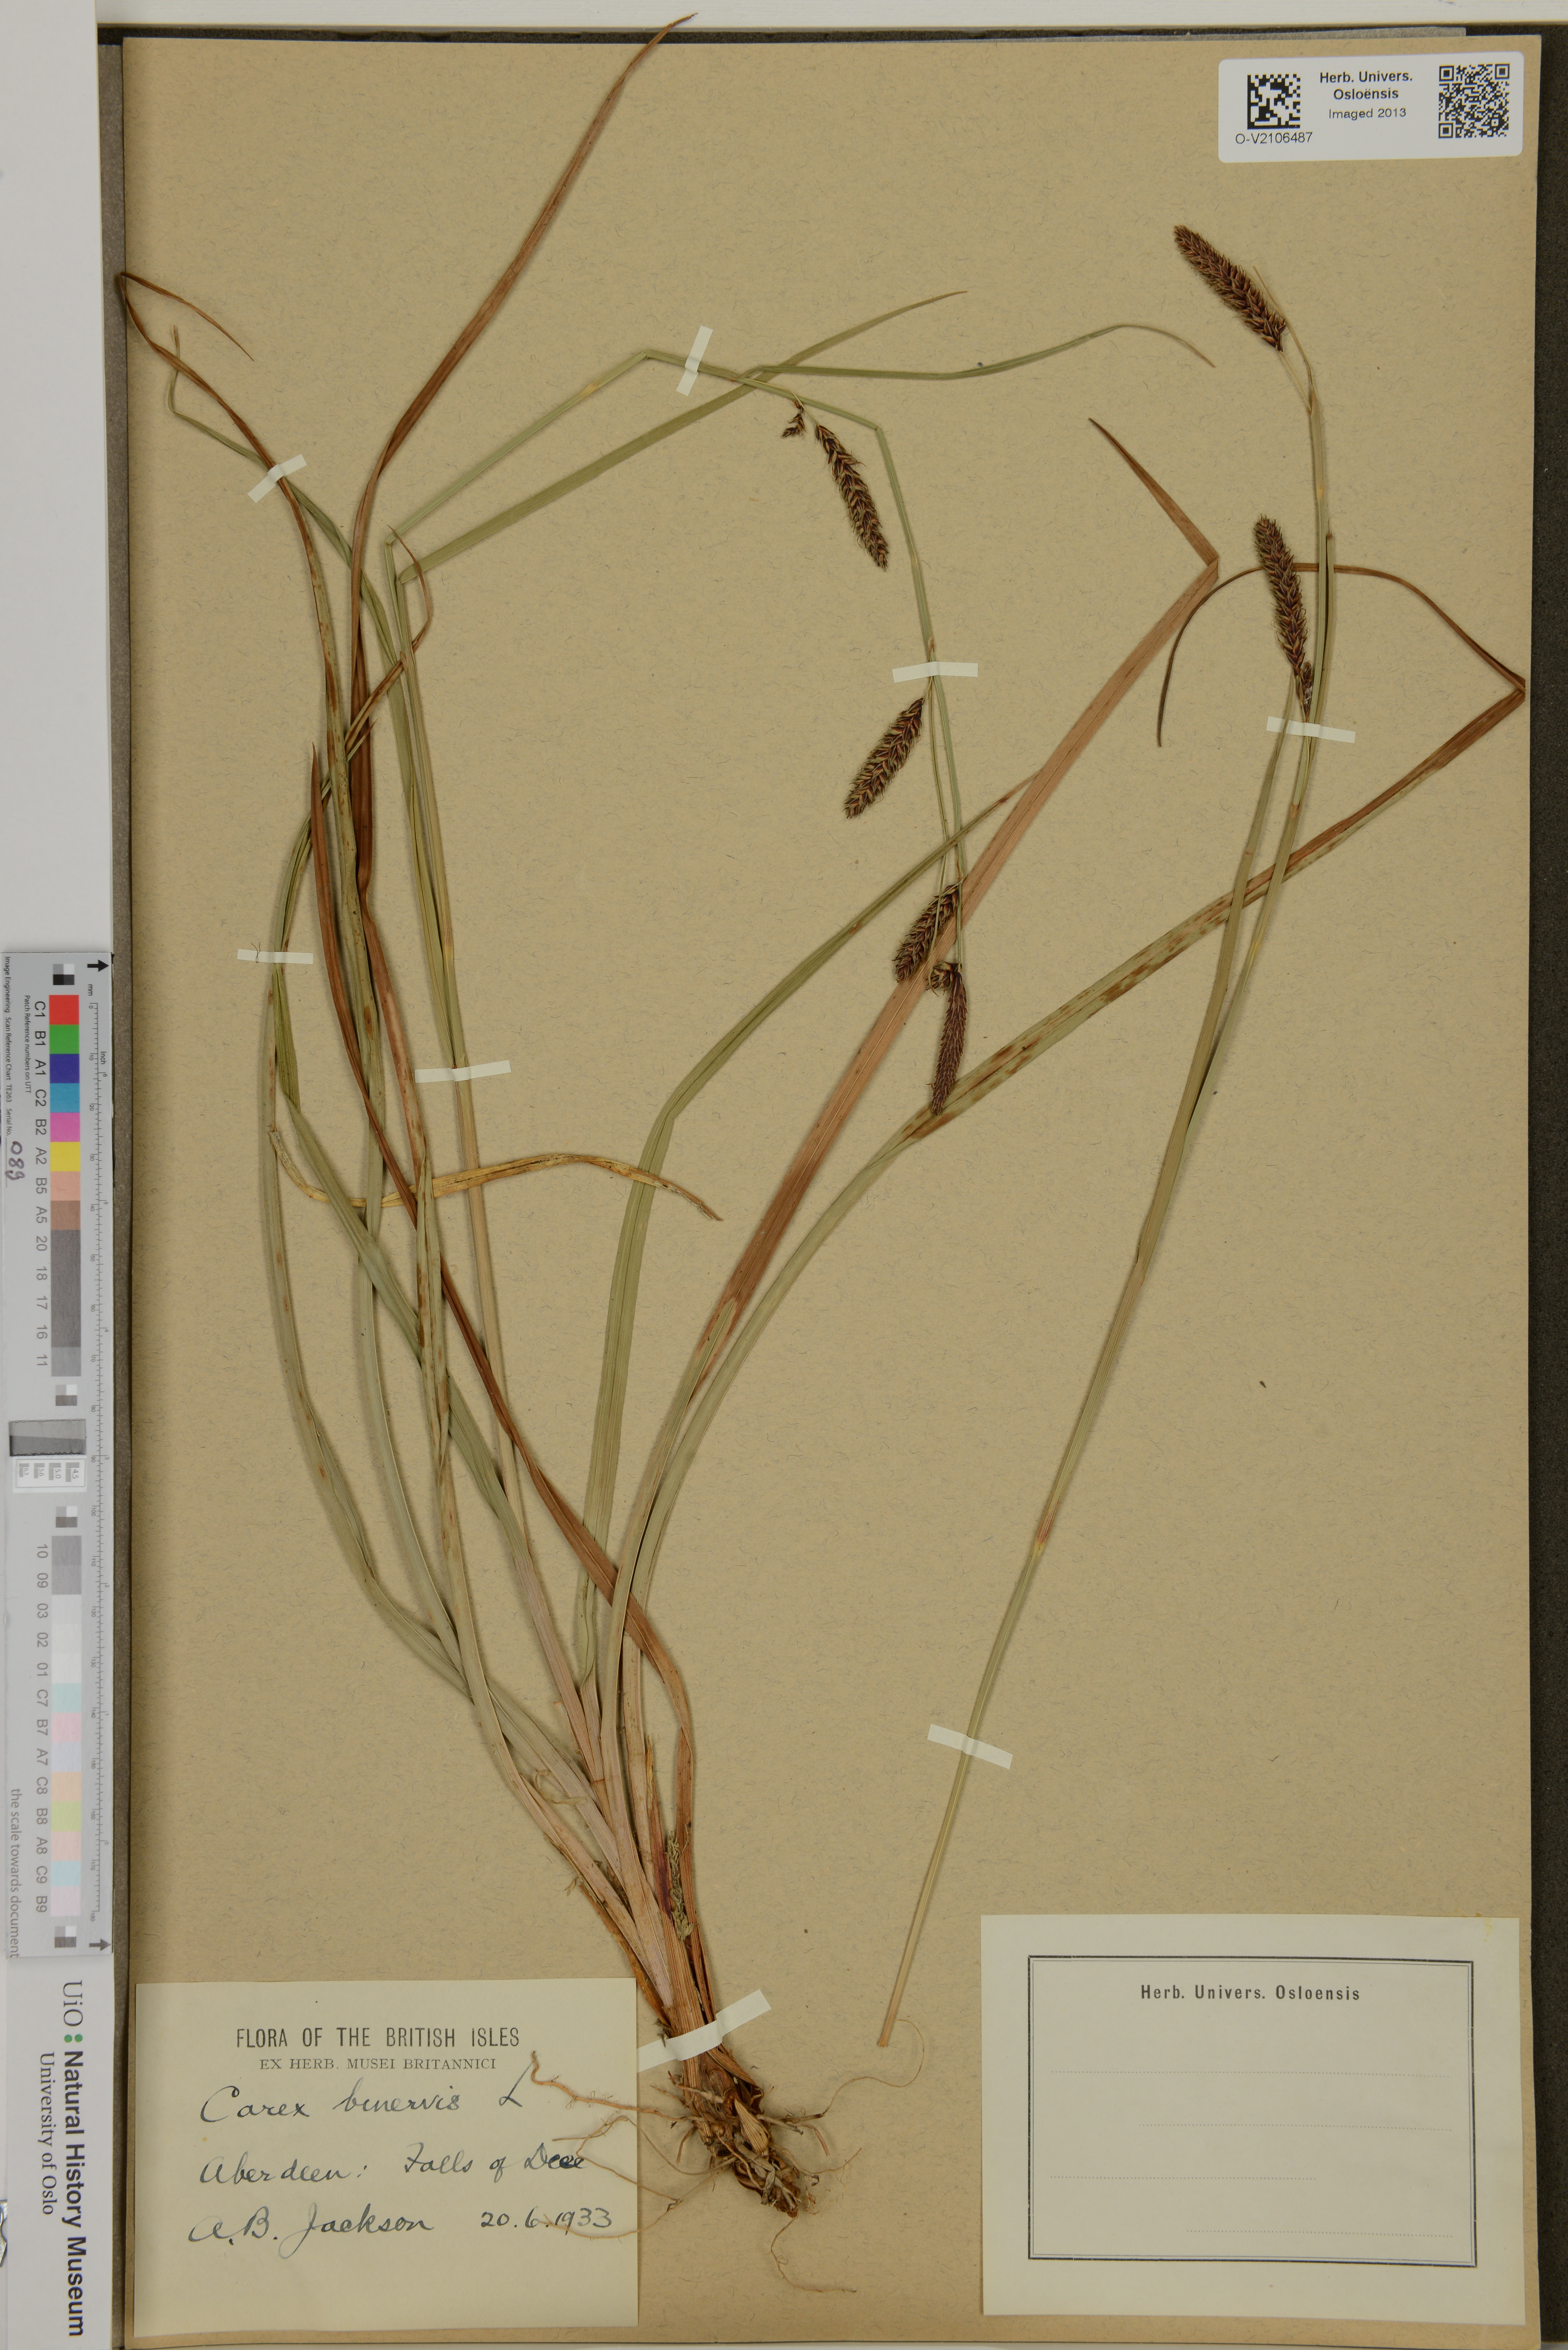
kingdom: Plantae
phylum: Tracheophyta
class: Liliopsida
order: Poales
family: Cyperaceae
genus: Carex
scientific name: Carex binervis
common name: Green-ribbed sedge
